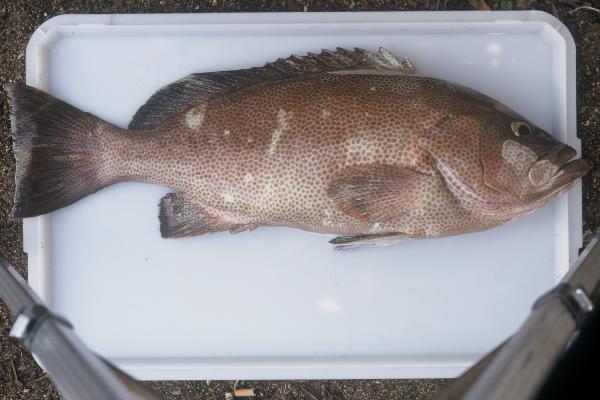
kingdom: Animalia
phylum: Chordata
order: Perciformes
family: Serranidae
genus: Epinephelus
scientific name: Epinephelus chlorostigma
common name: Brownspotted grouper
